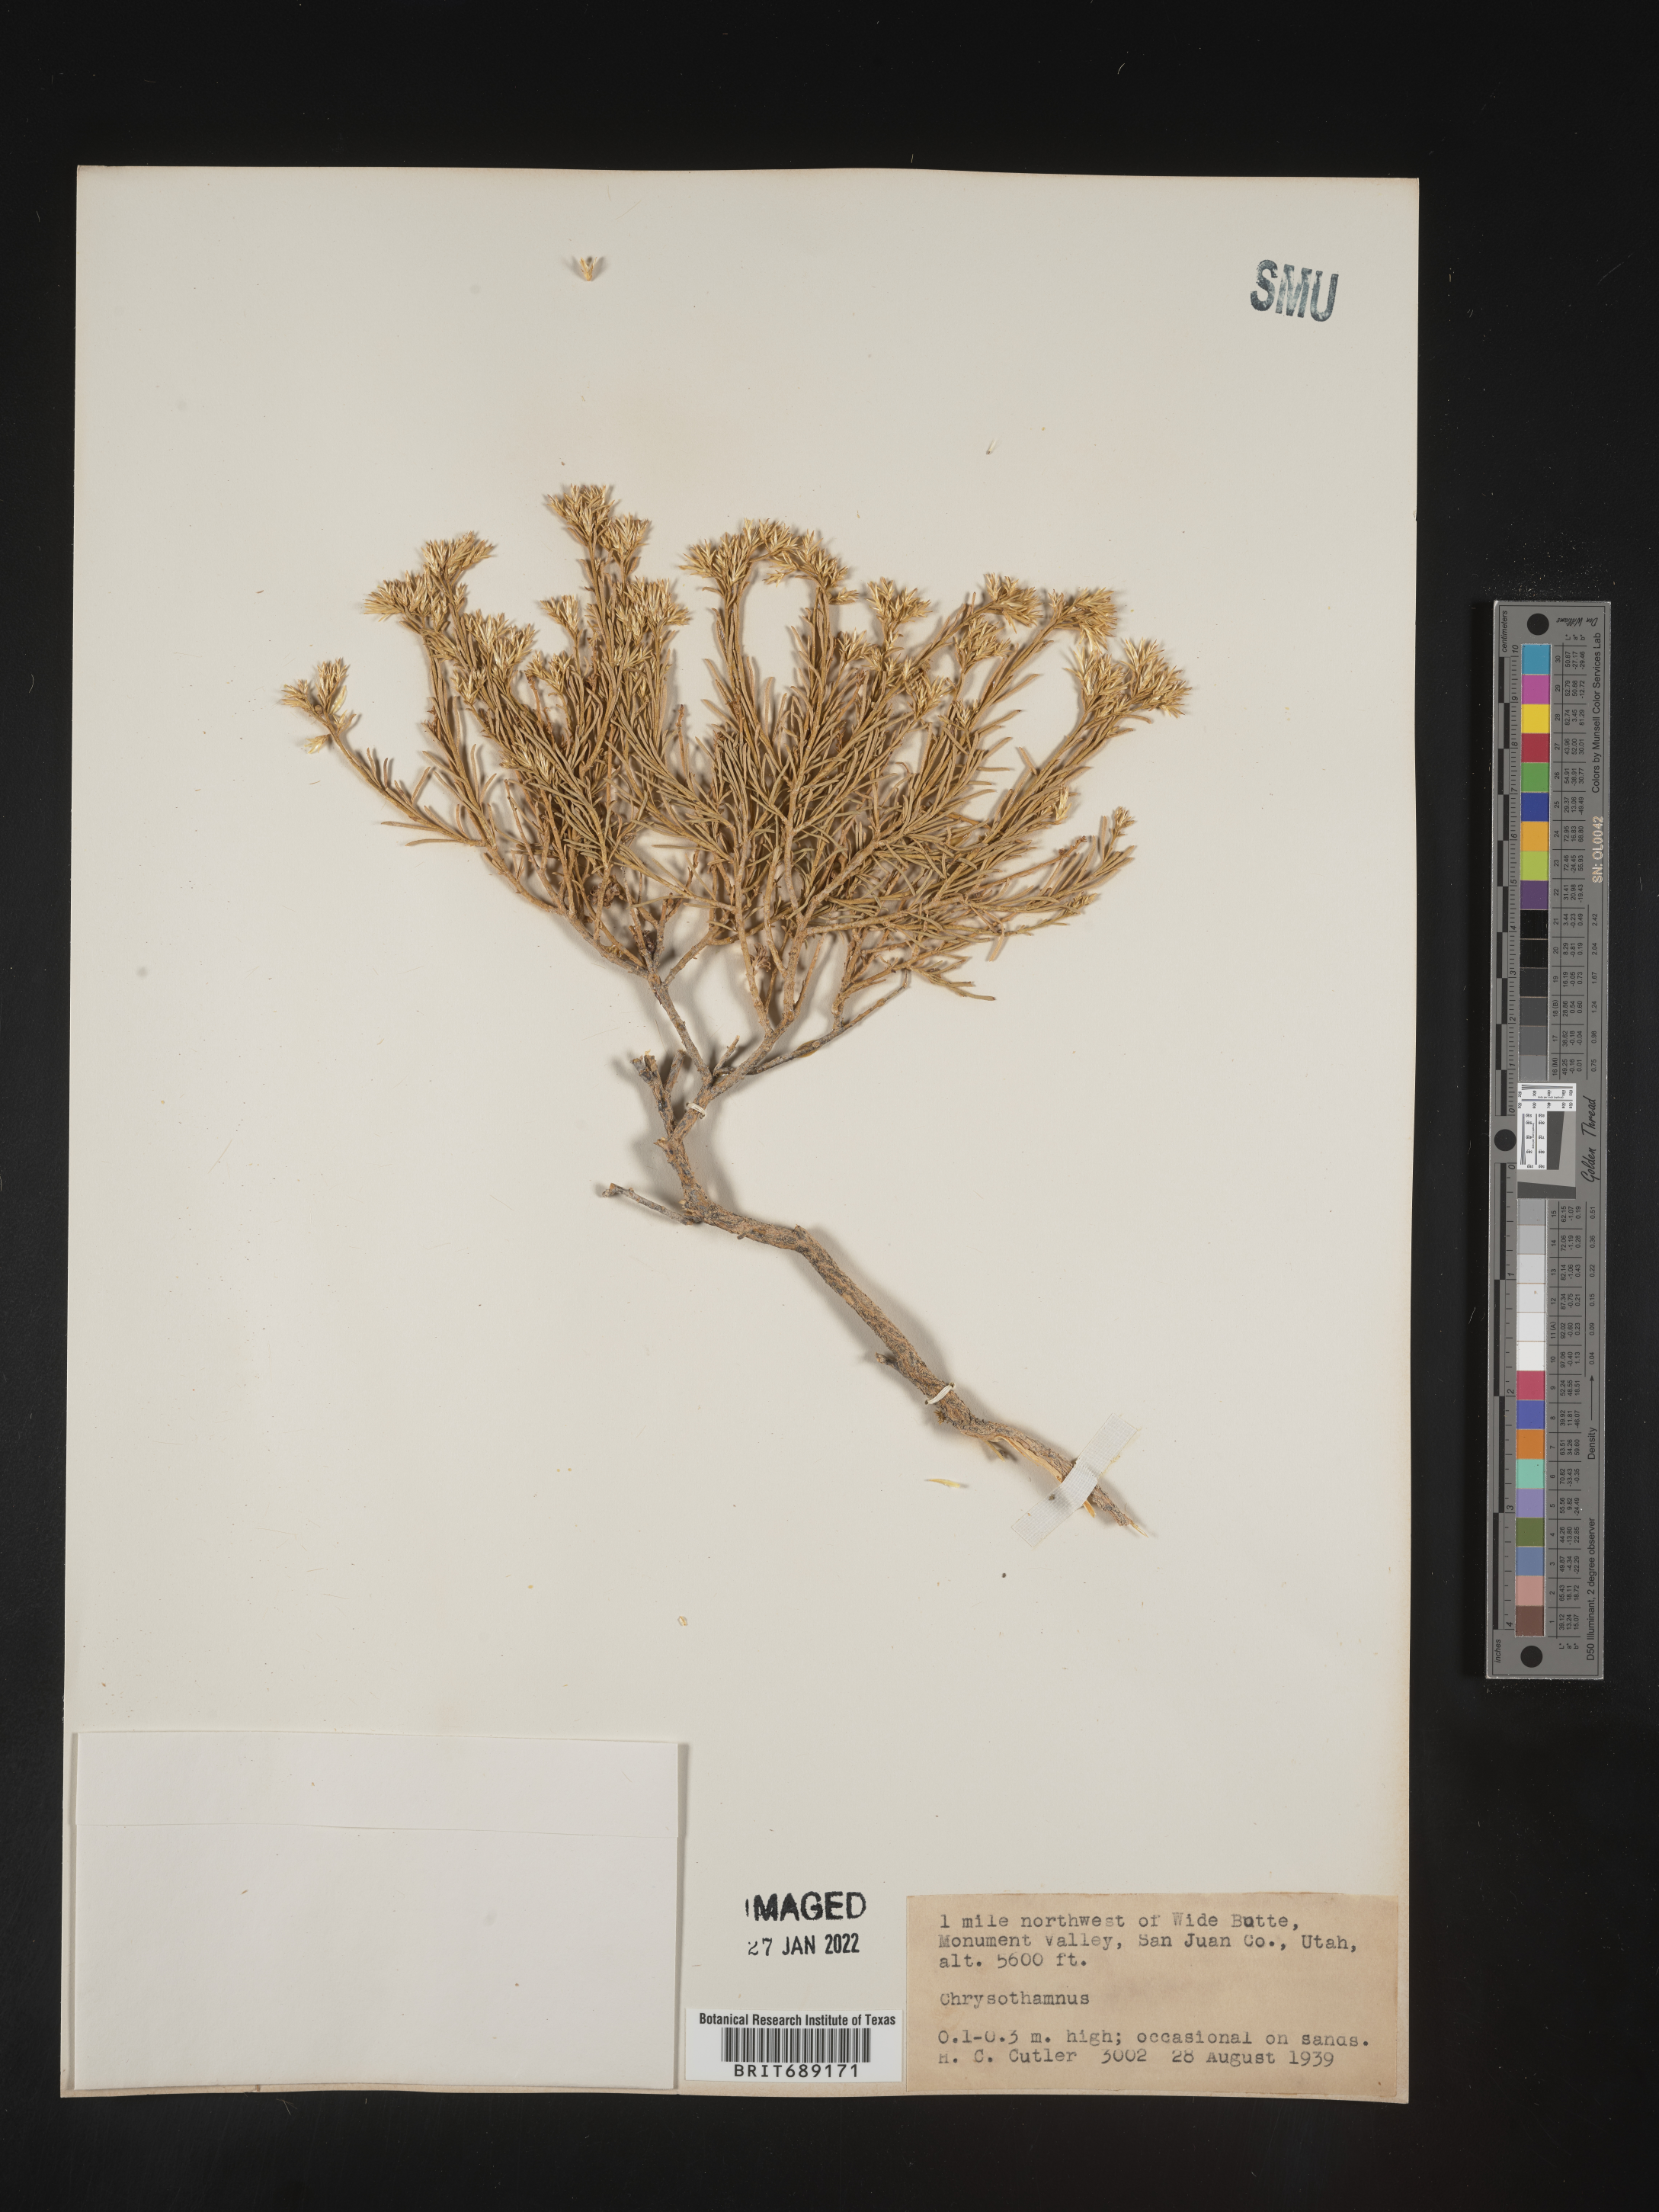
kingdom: Plantae
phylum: Tracheophyta
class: Magnoliopsida
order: Asterales
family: Asteraceae
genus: Chrysothamnus
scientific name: Chrysothamnus
